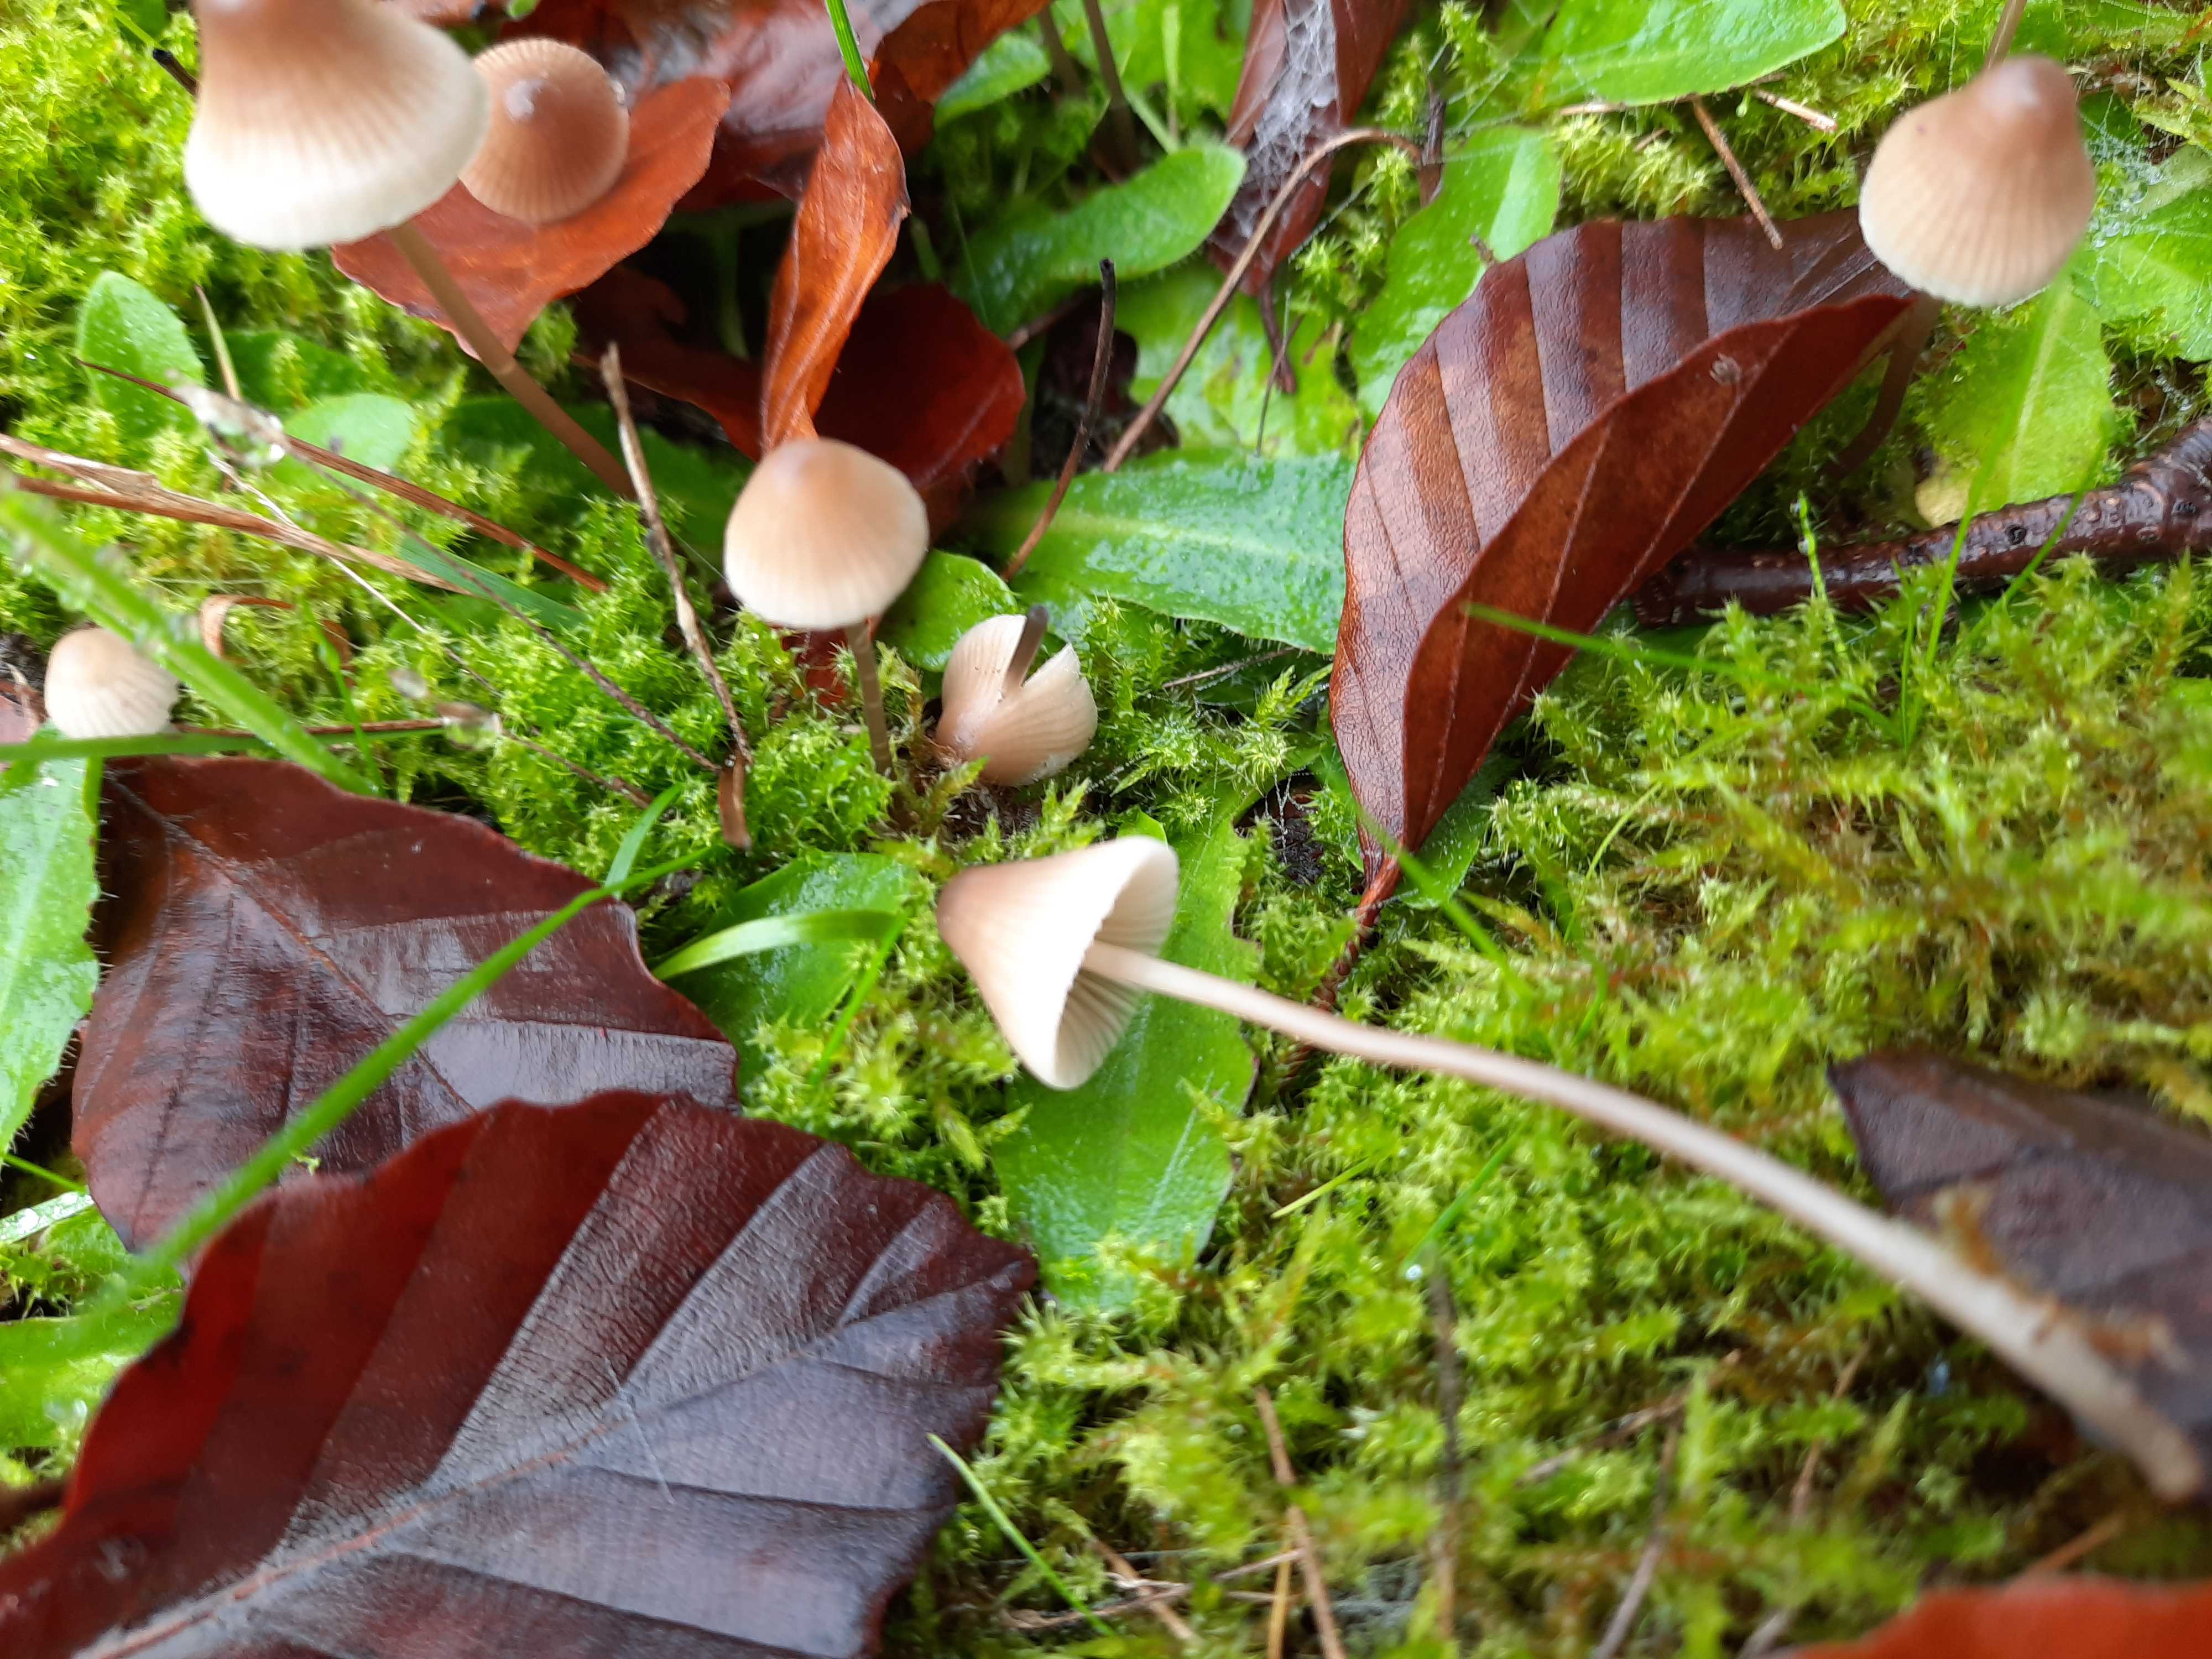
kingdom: Fungi
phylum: Basidiomycota
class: Agaricomycetes
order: Agaricales
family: Mycenaceae
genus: Mycena
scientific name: Mycena metata
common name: rødlig huesvamp
